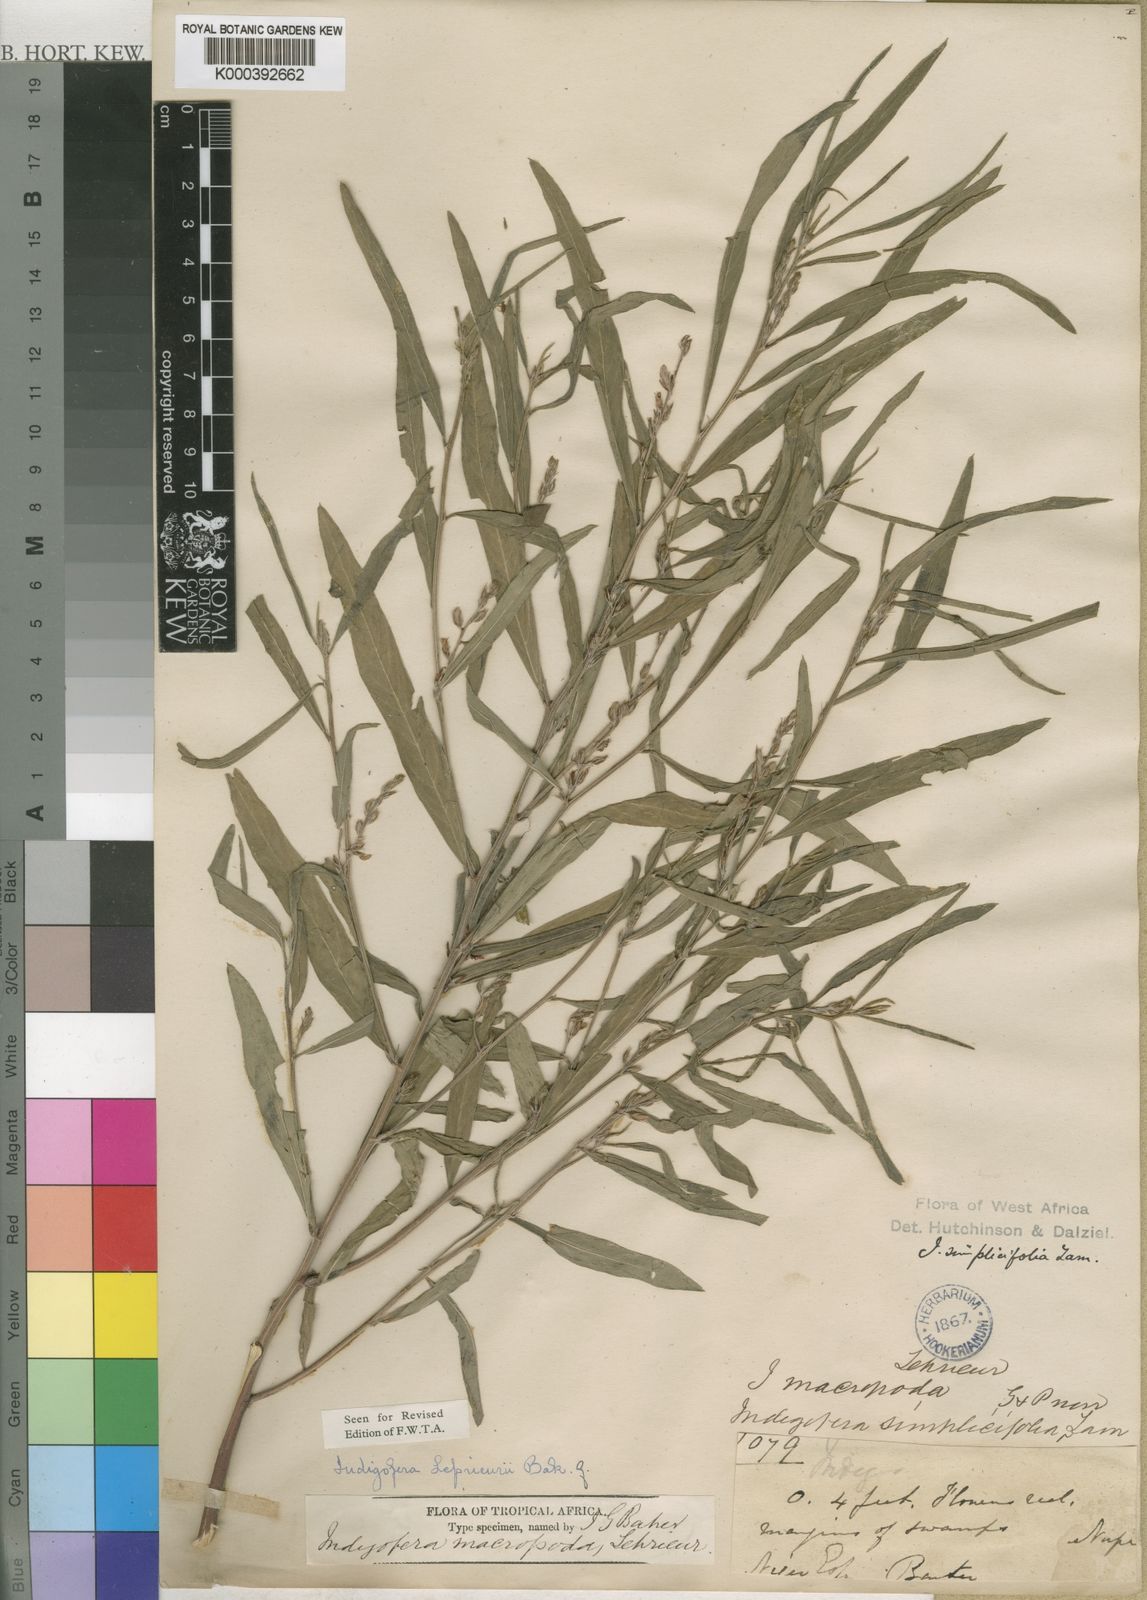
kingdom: Plantae
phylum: Tracheophyta
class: Magnoliopsida
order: Fabales
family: Fabaceae
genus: Indigofera
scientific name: Indigofera leprieurii
